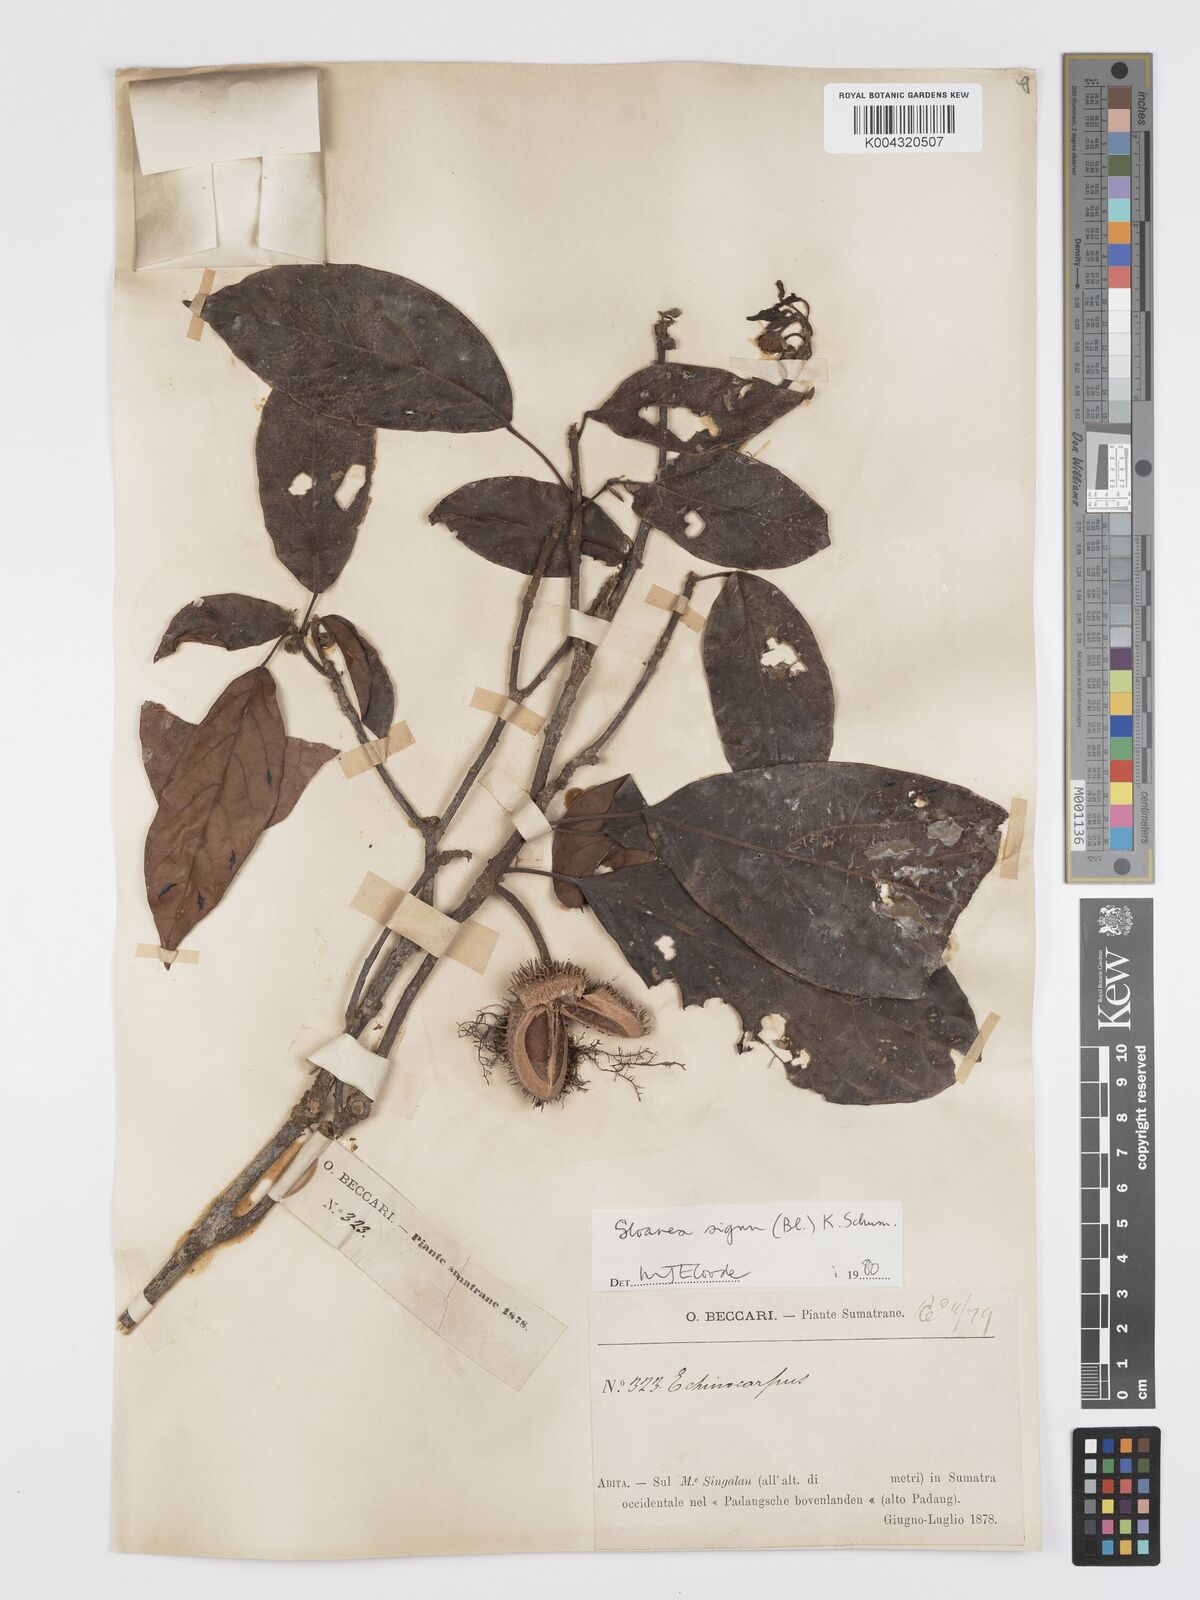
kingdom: Plantae
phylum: Tracheophyta
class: Magnoliopsida
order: Oxalidales
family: Elaeocarpaceae
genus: Sloanea
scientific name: Sloanea sigun
